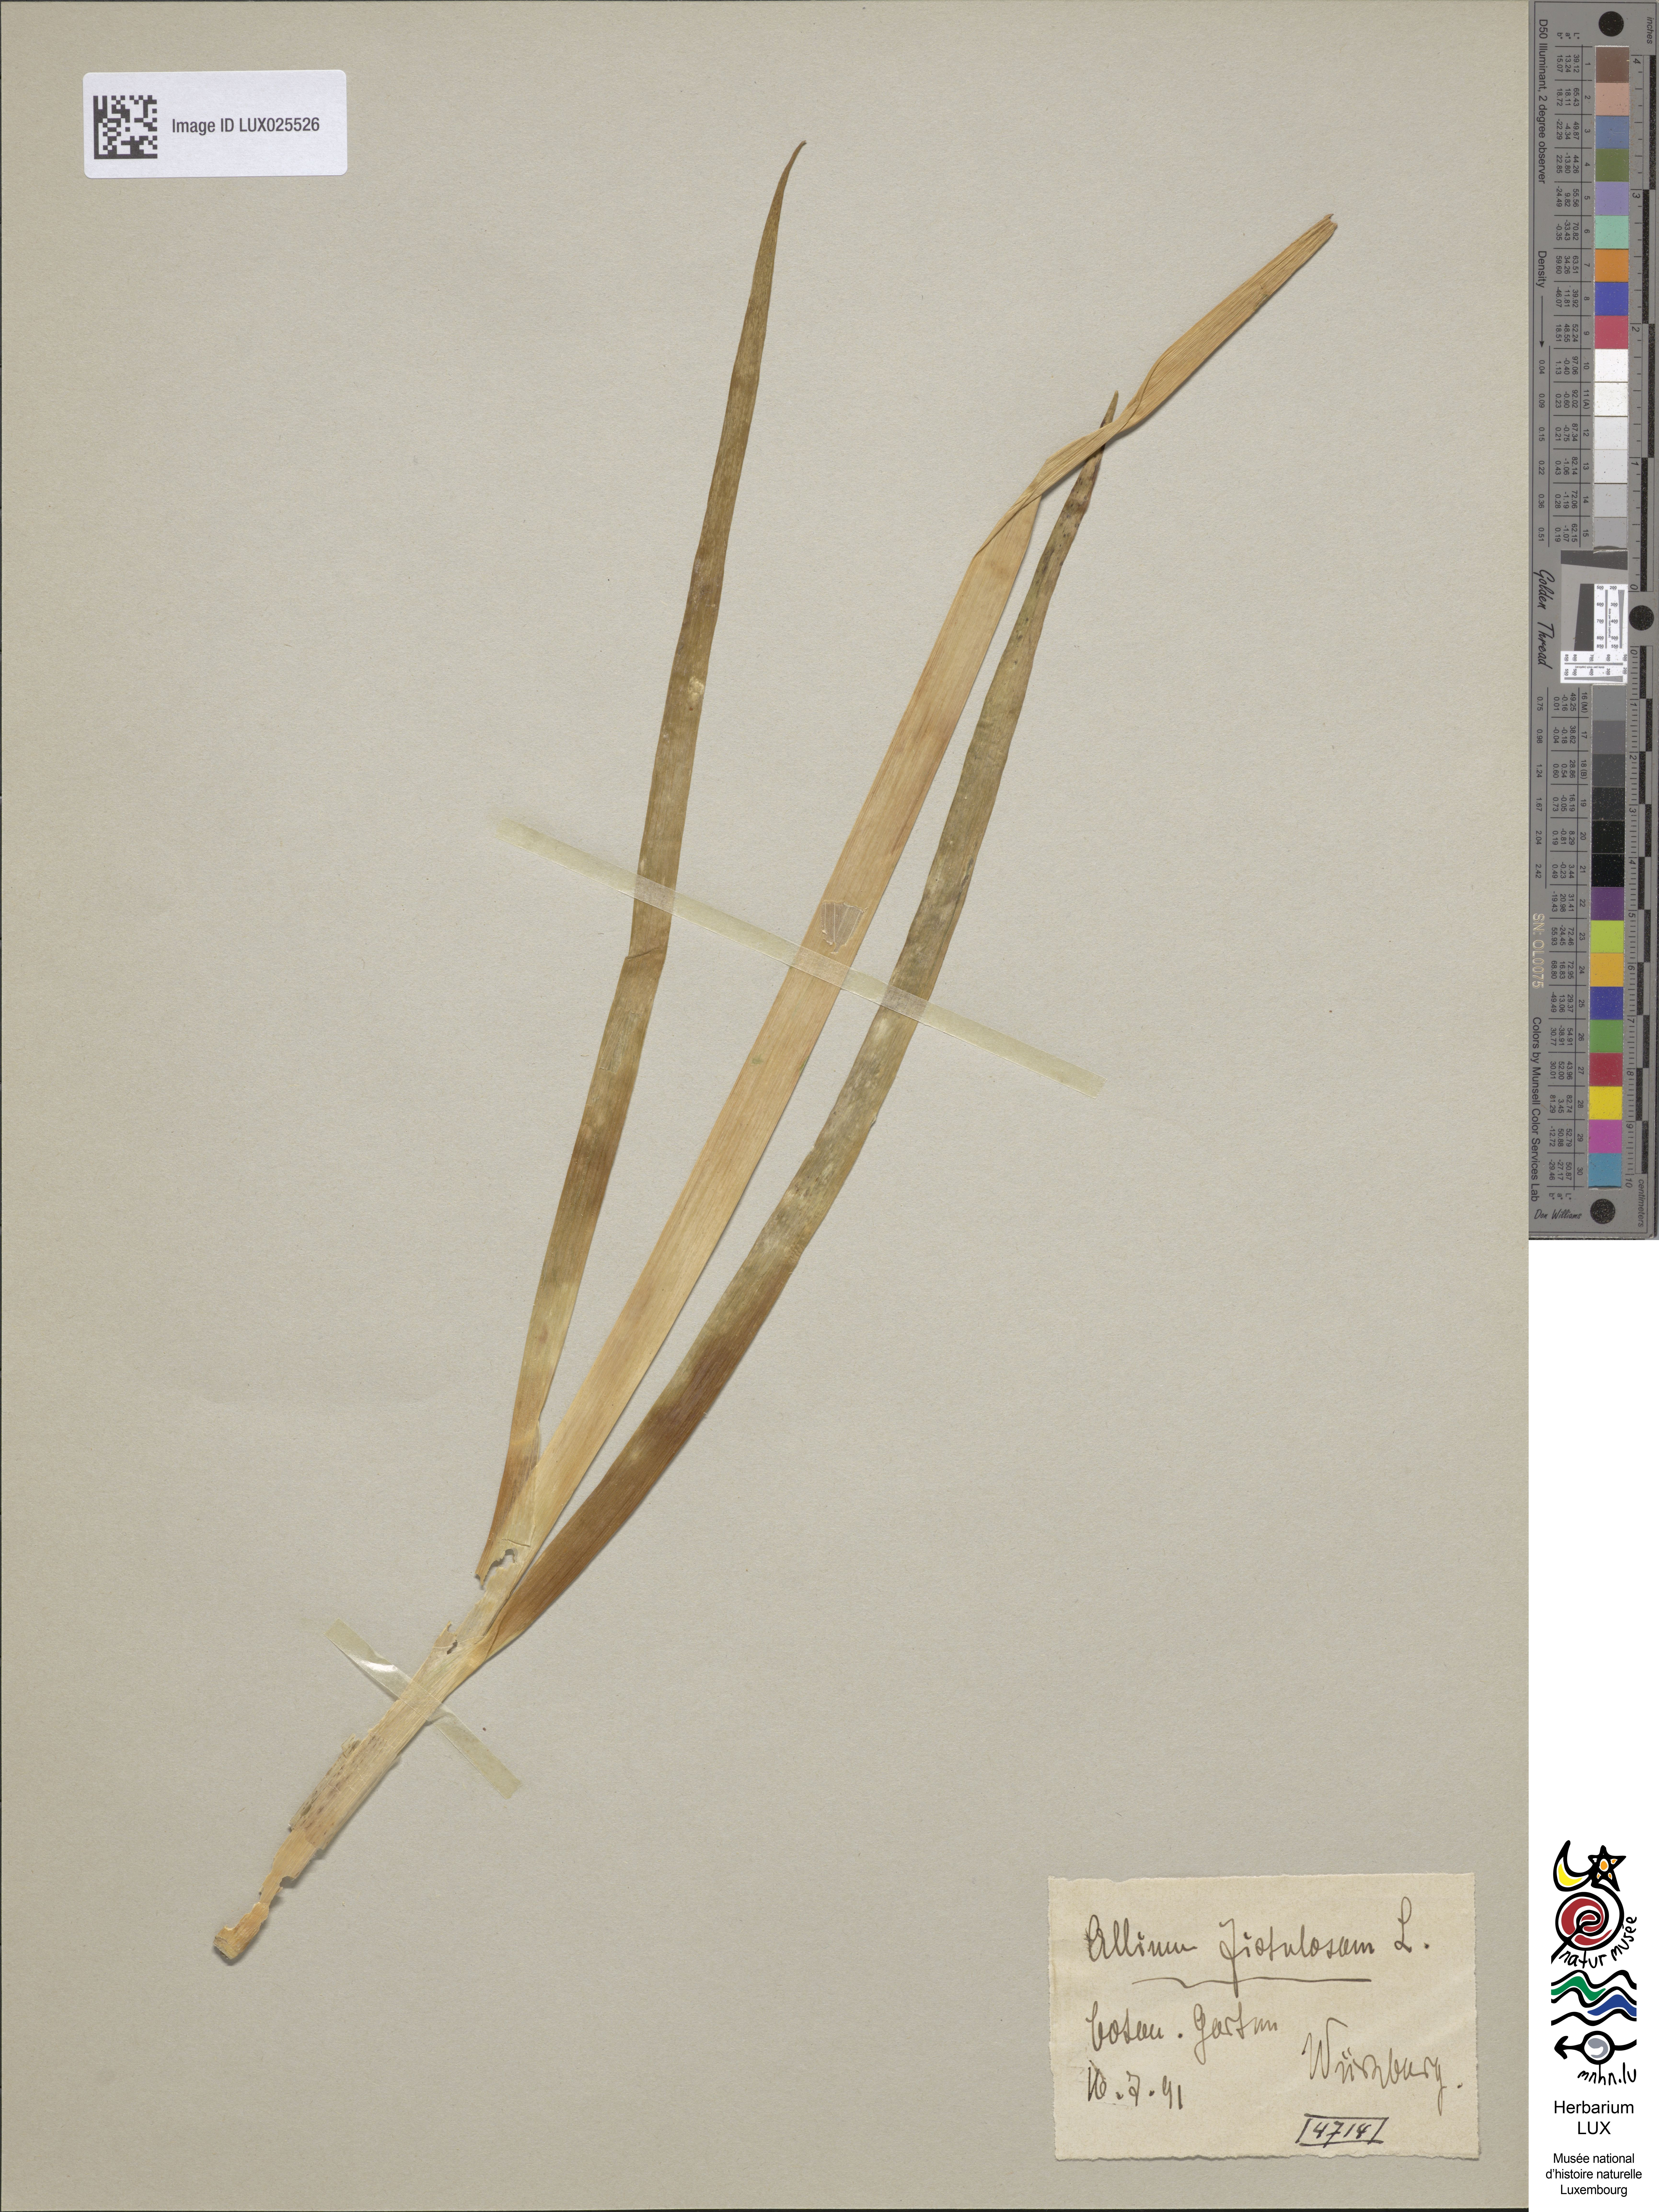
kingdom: Plantae
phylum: Tracheophyta
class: Liliopsida
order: Asparagales
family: Amaryllidaceae
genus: Allium
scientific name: Allium fistulosum
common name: Welsh onion
